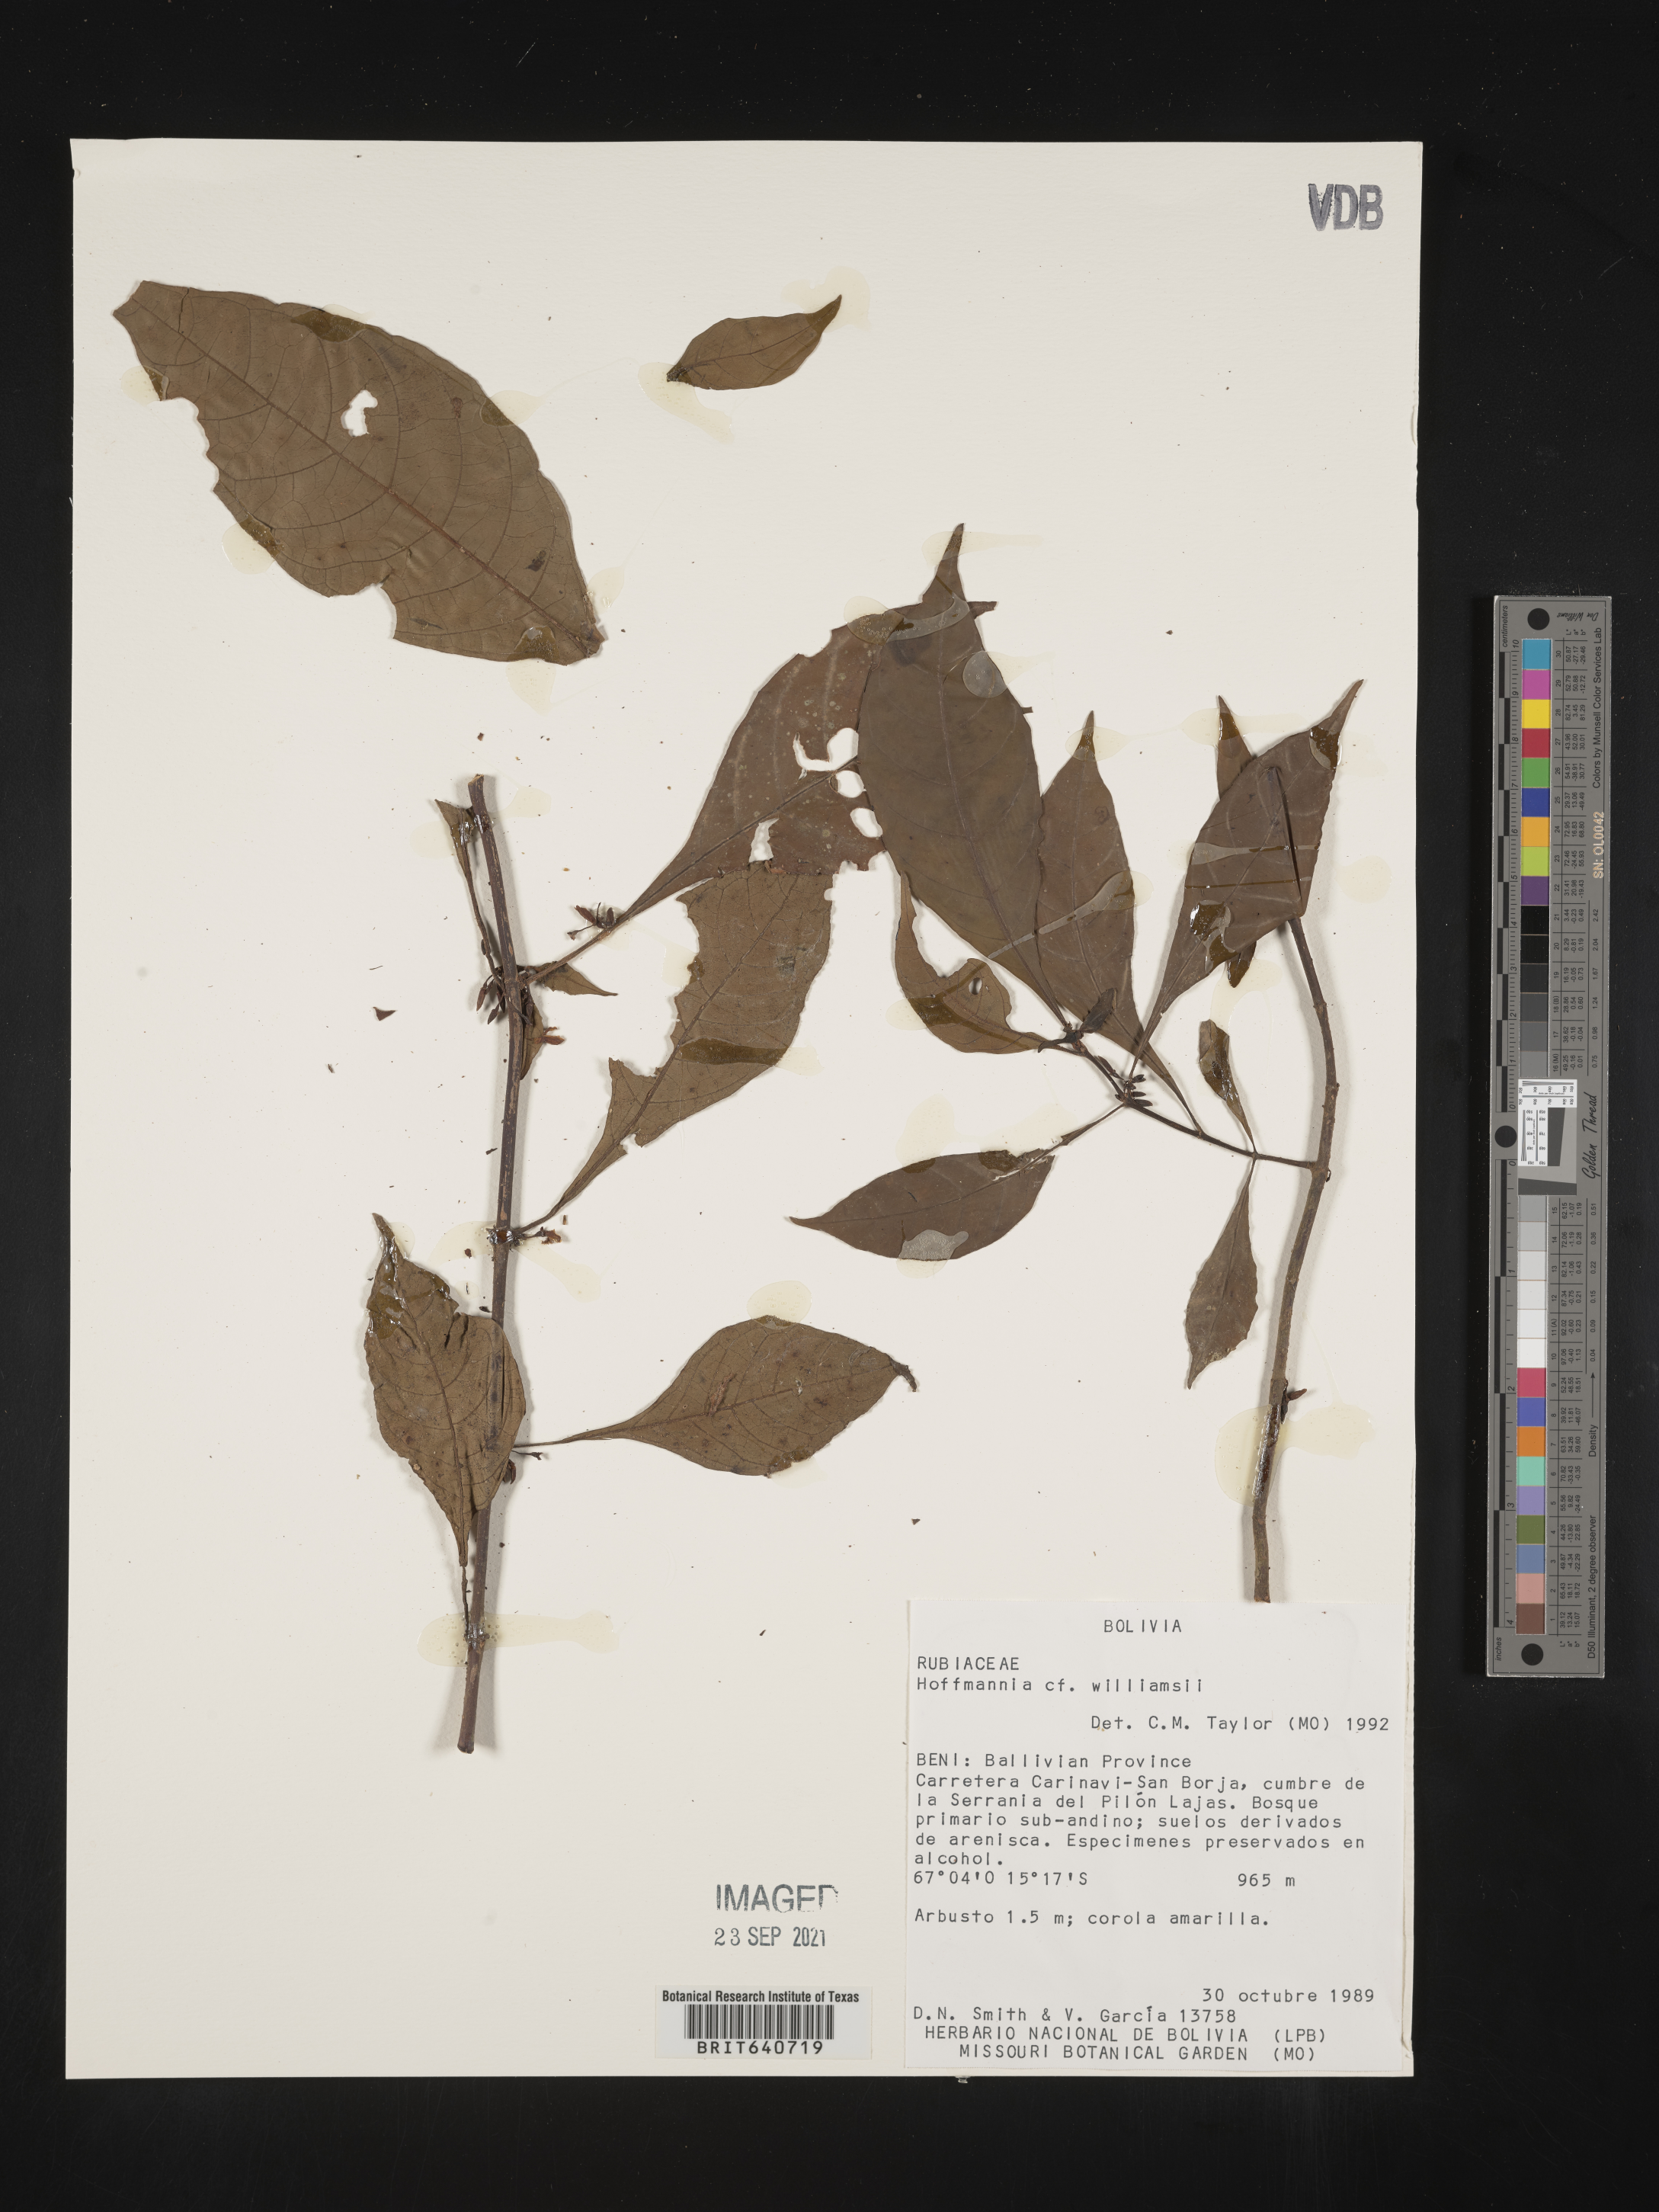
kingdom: Plantae
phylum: Tracheophyta
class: Magnoliopsida
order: Gentianales
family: Rubiaceae
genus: Hoffmannia
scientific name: Hoffmannia
